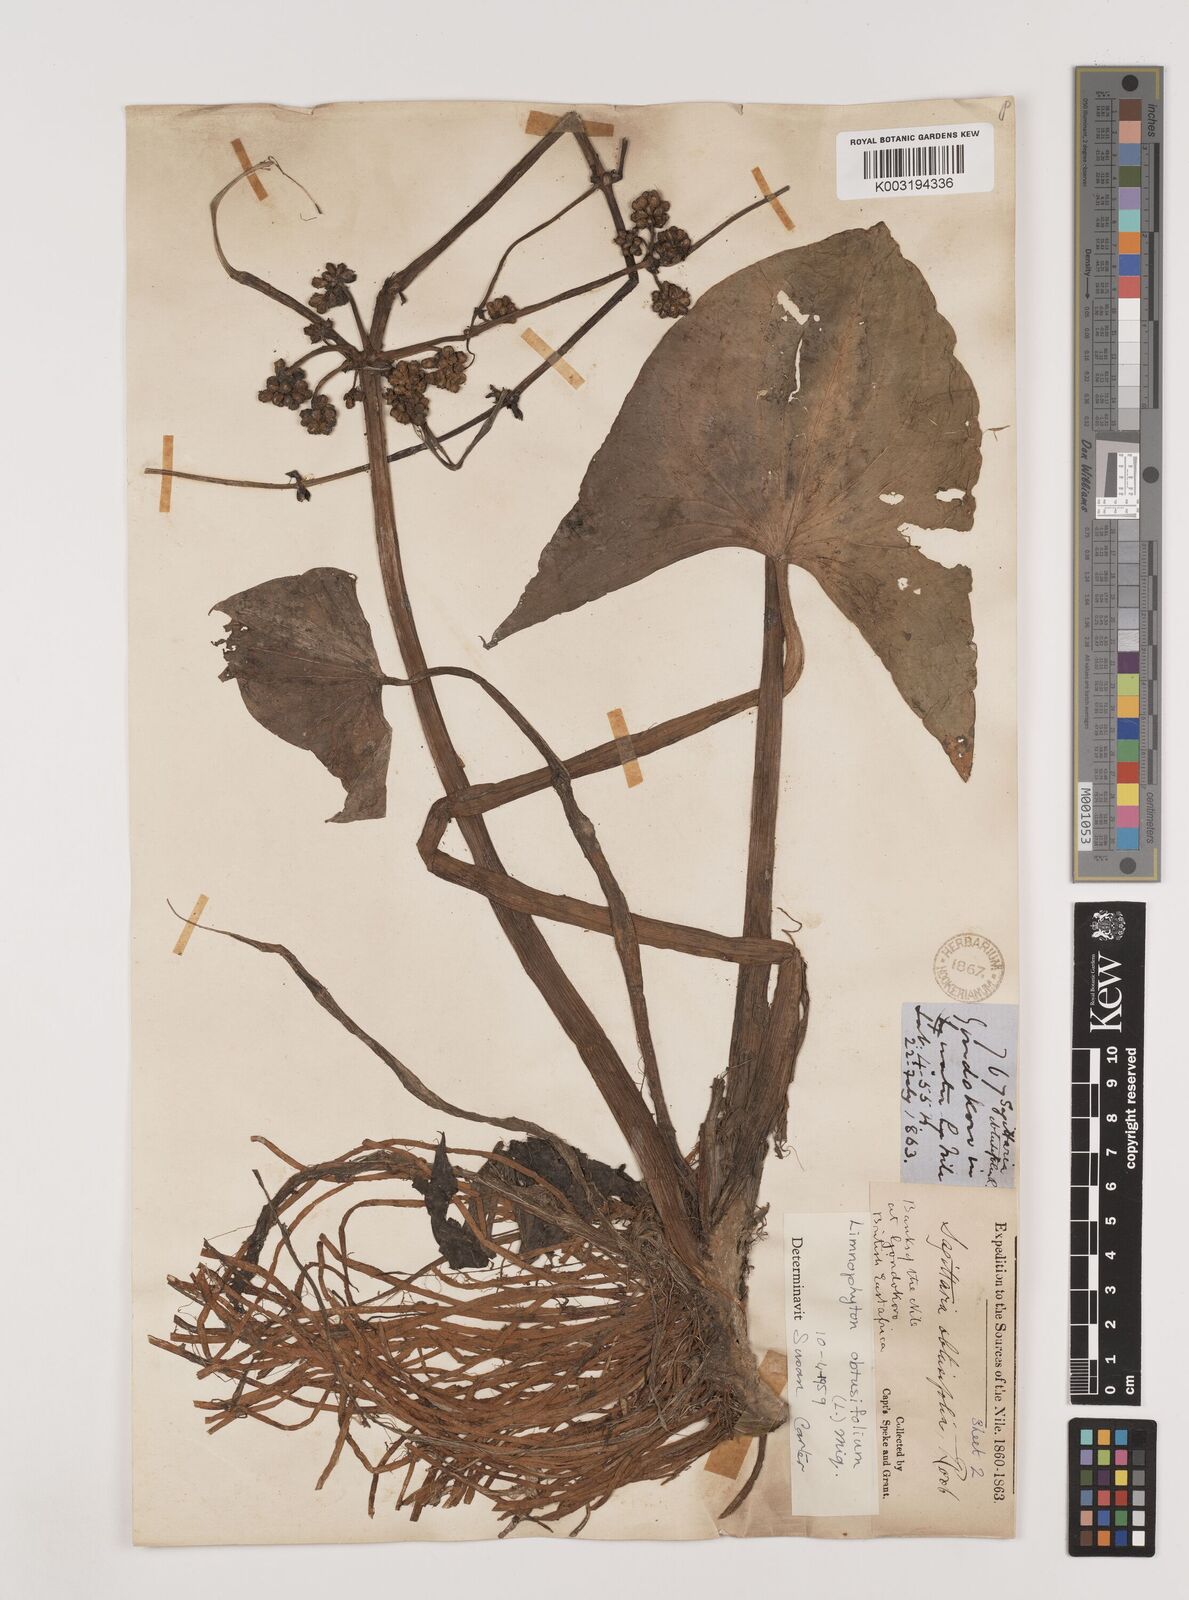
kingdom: Plantae
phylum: Tracheophyta
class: Liliopsida
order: Alismatales
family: Alismataceae
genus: Limnophyton
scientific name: Limnophyton obtusifolium
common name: Arrow head
